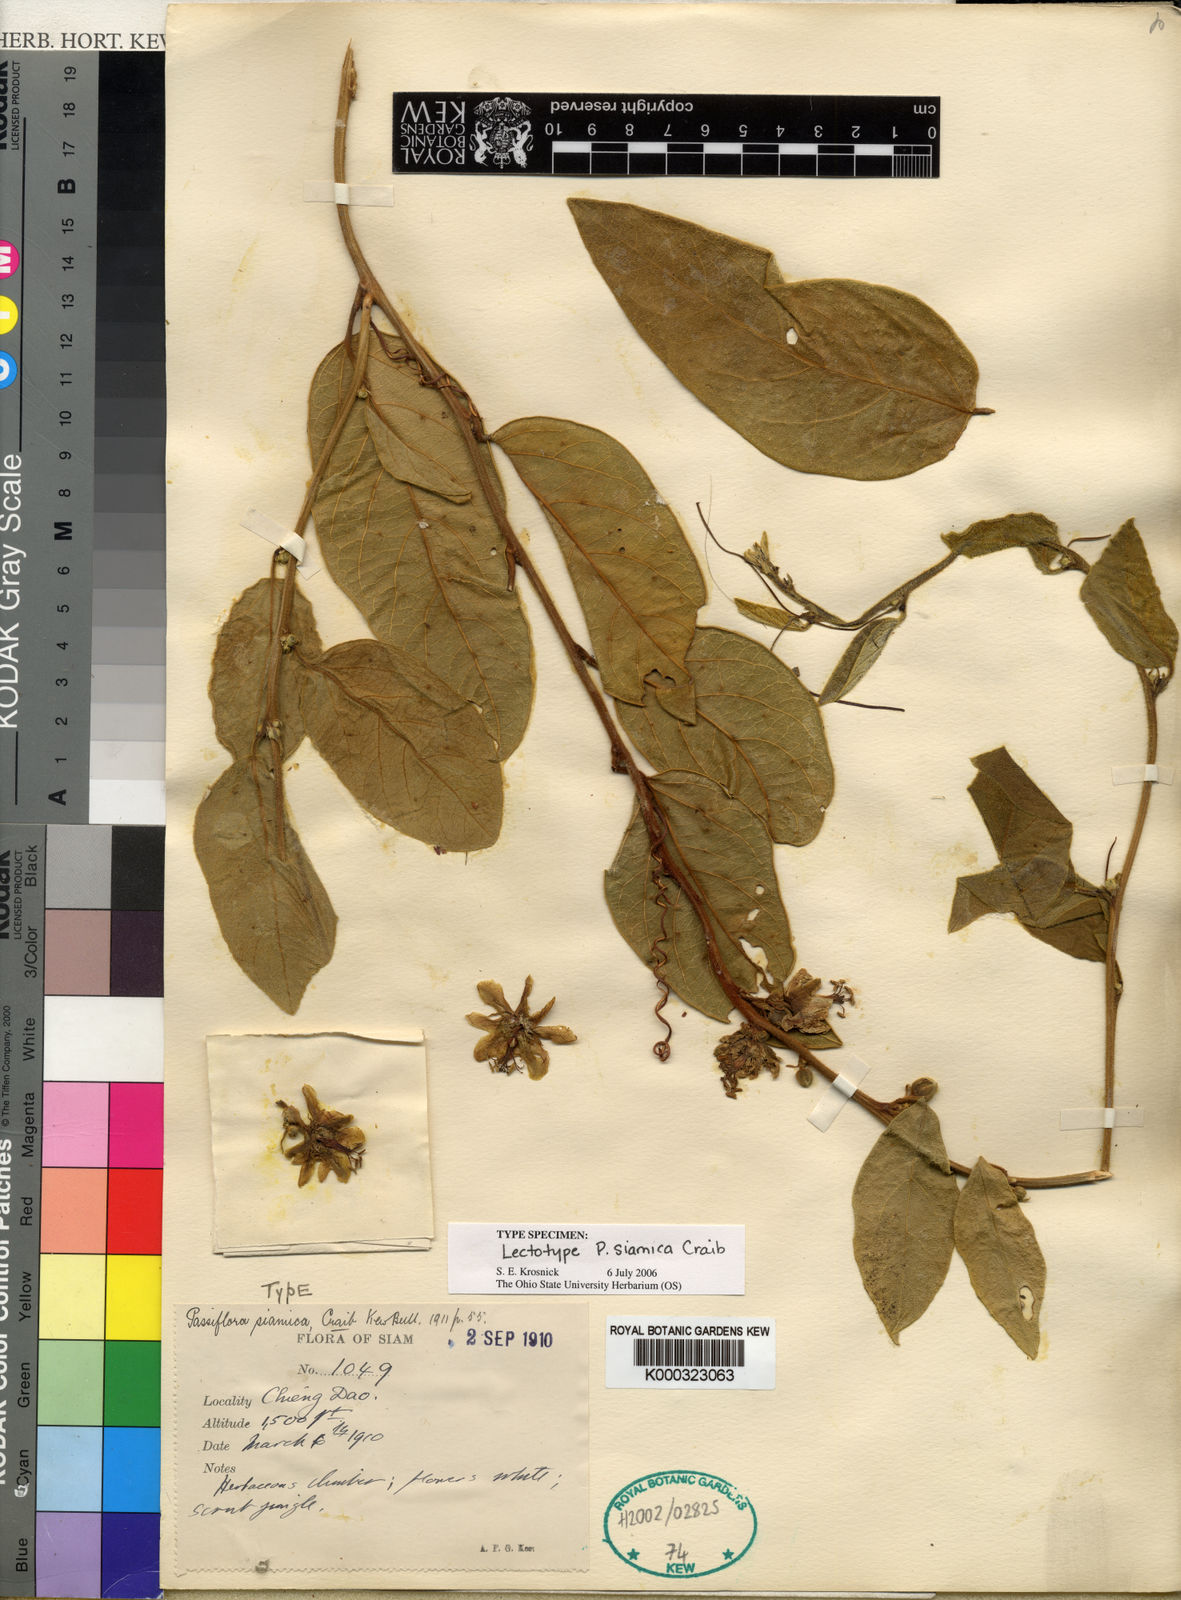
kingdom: Plantae
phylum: Tracheophyta
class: Magnoliopsida
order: Malpighiales
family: Passifloraceae
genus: Passiflora
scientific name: Passiflora siamica
